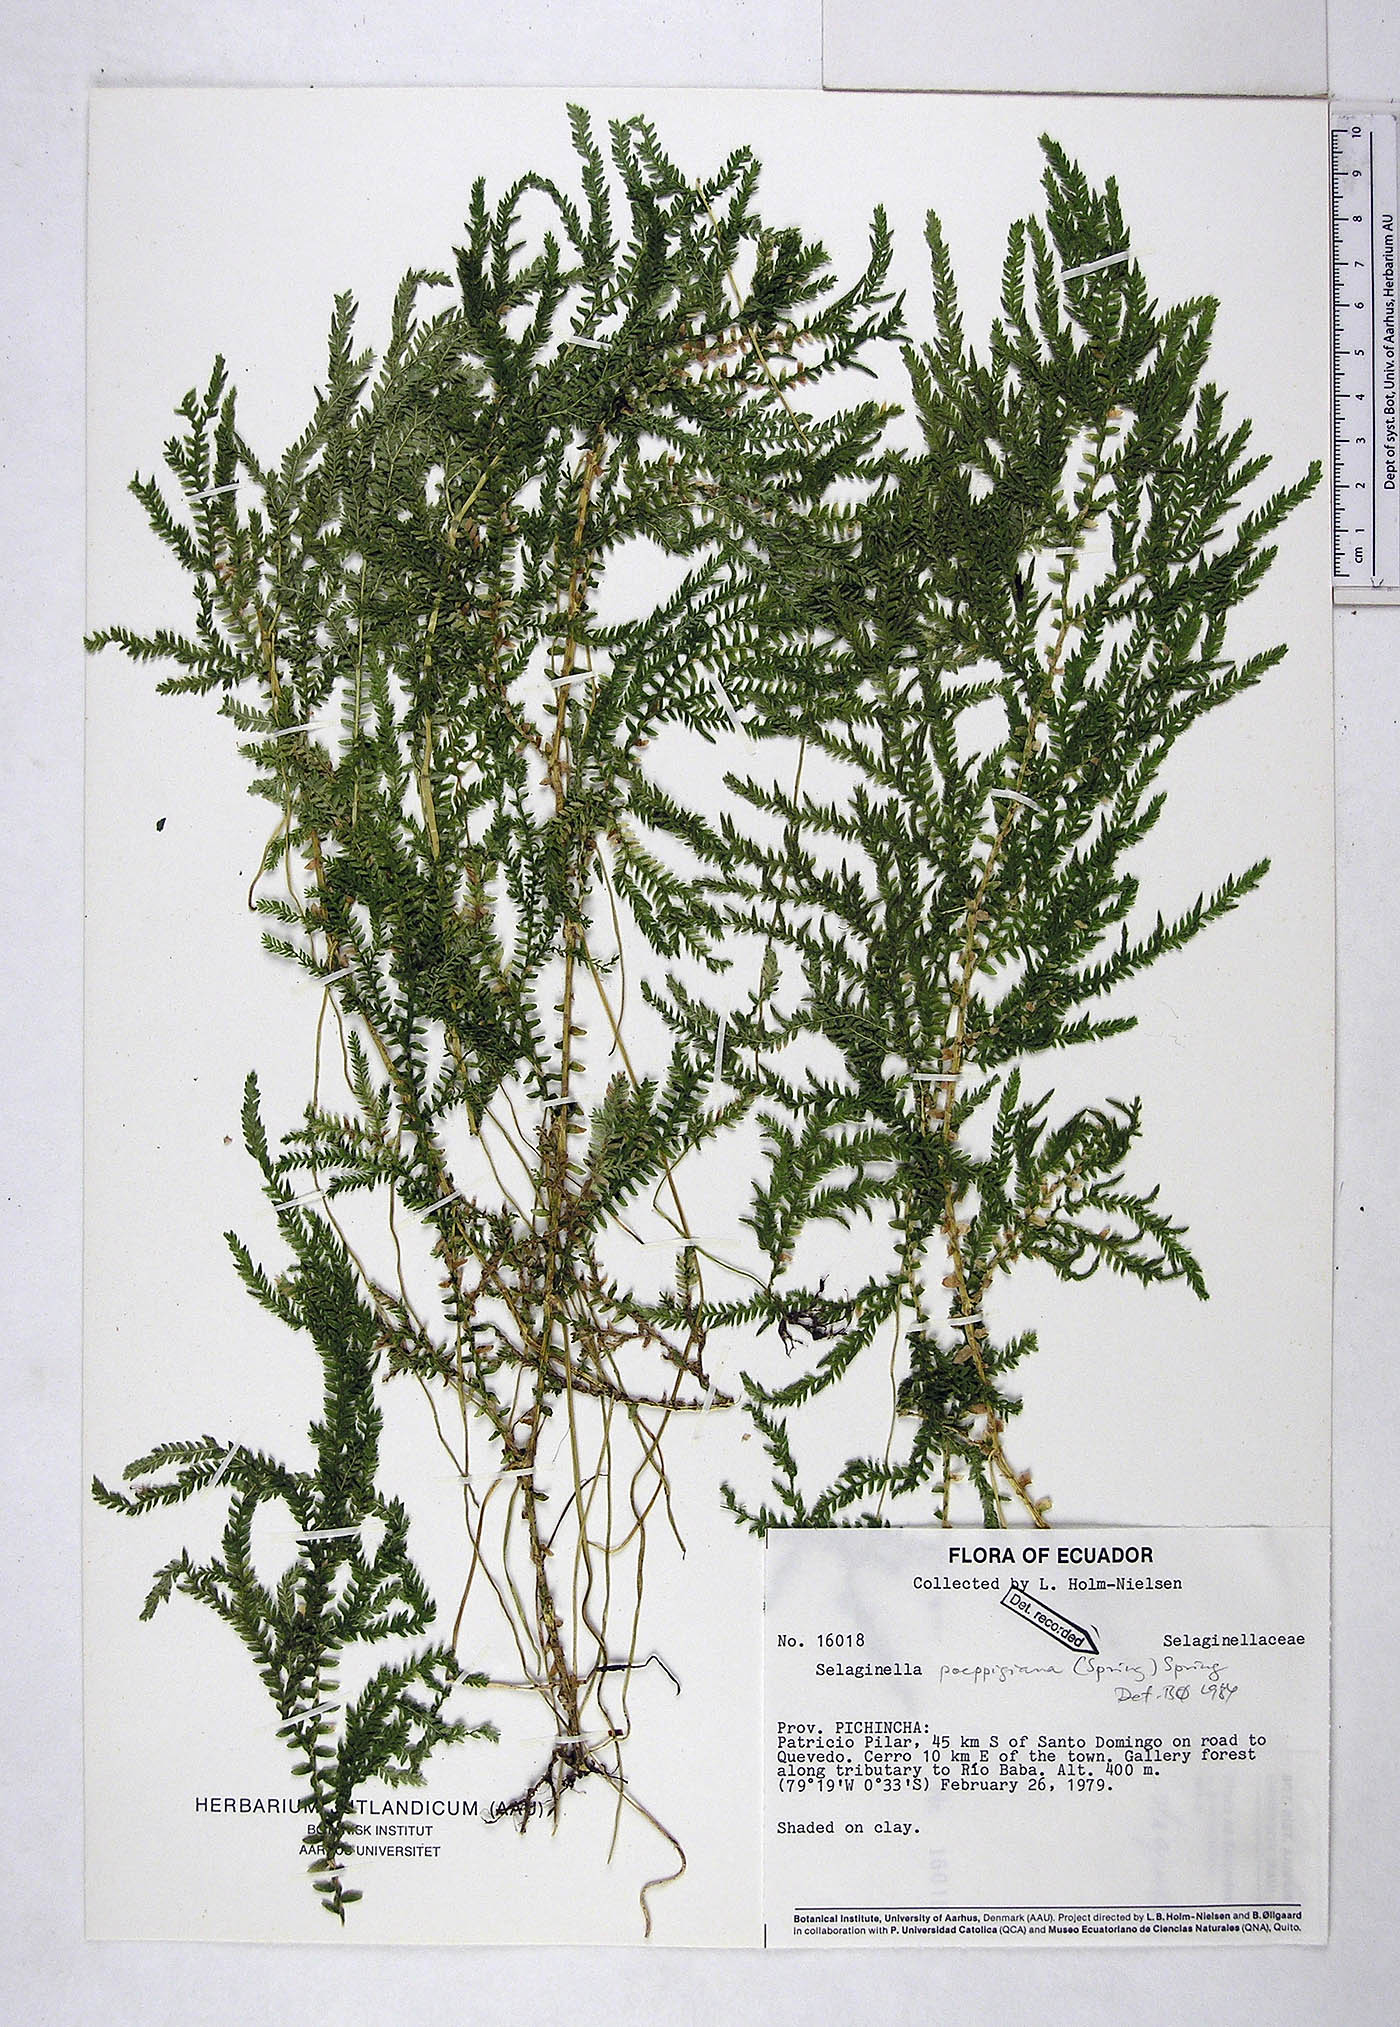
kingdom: Plantae
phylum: Tracheophyta
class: Lycopodiopsida
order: Selaginellales
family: Selaginellaceae
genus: Selaginella
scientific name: Selaginella poeppigiana
